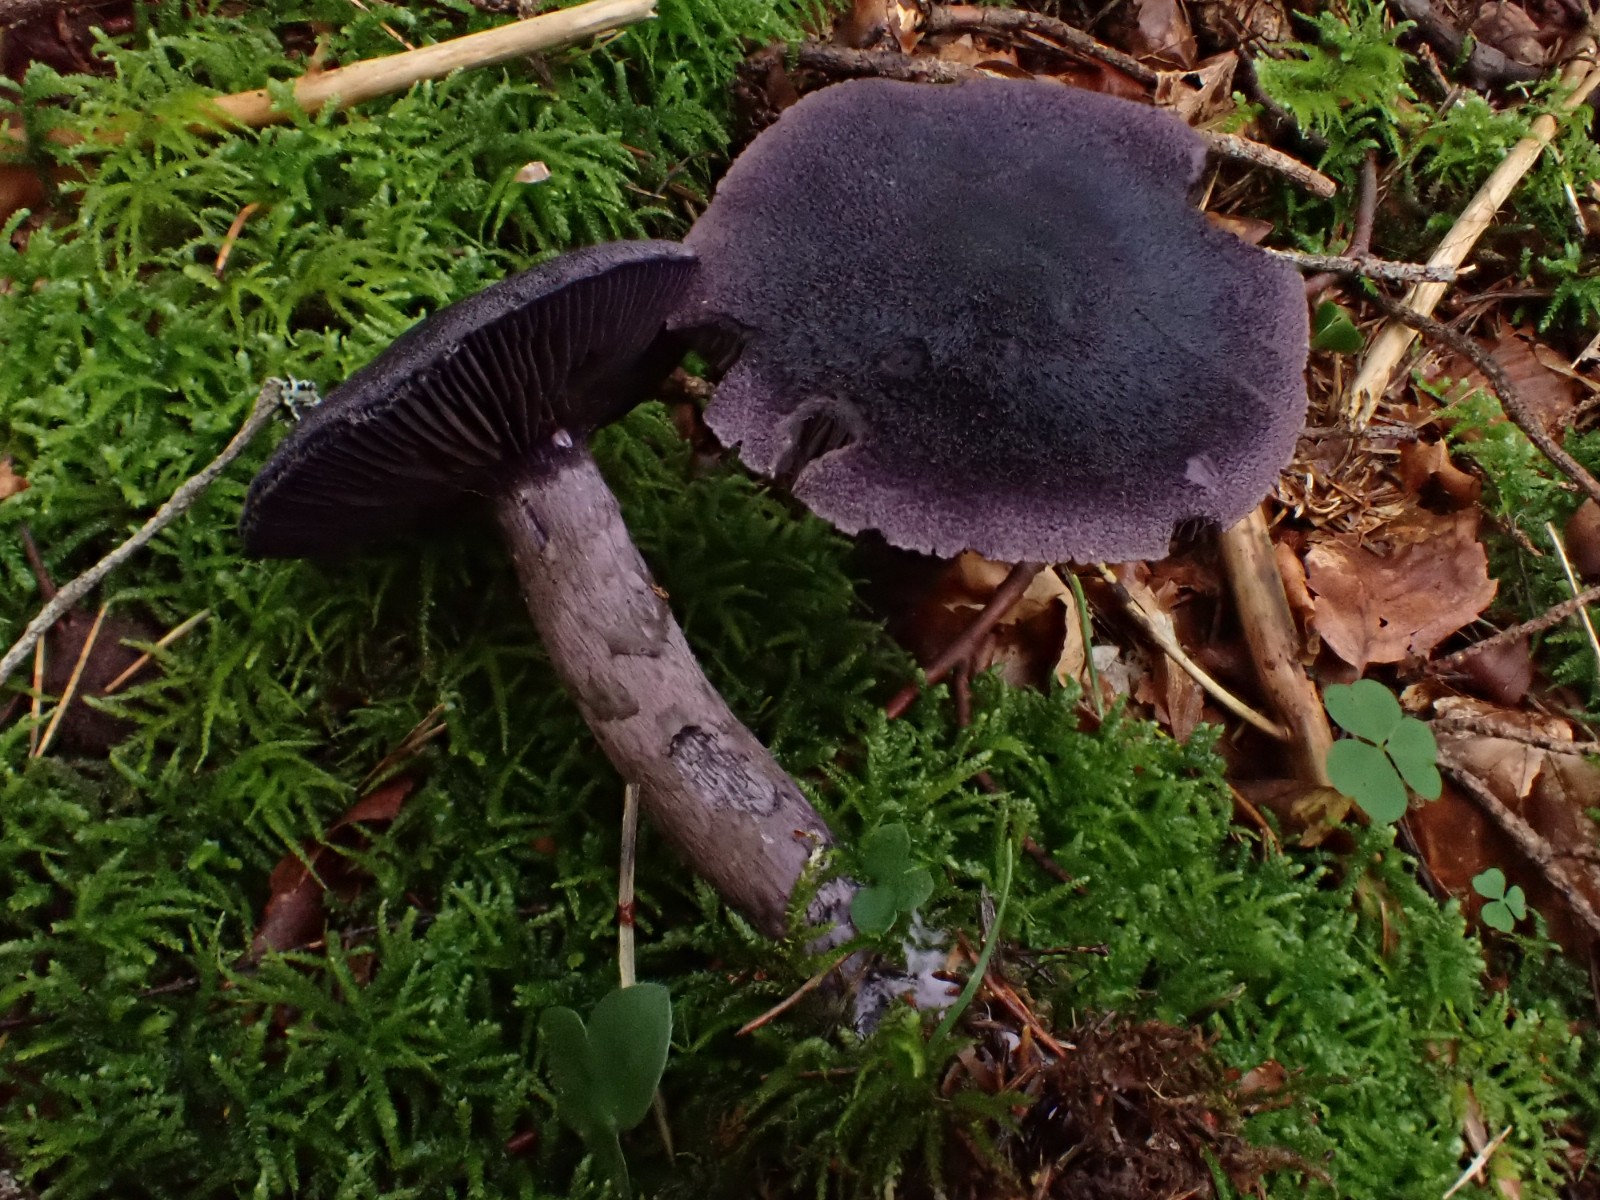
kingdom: Fungi
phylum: Basidiomycota
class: Agaricomycetes
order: Agaricales
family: Cortinariaceae
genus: Cortinarius
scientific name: Cortinarius violaceus
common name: mørkviolet slørhat
